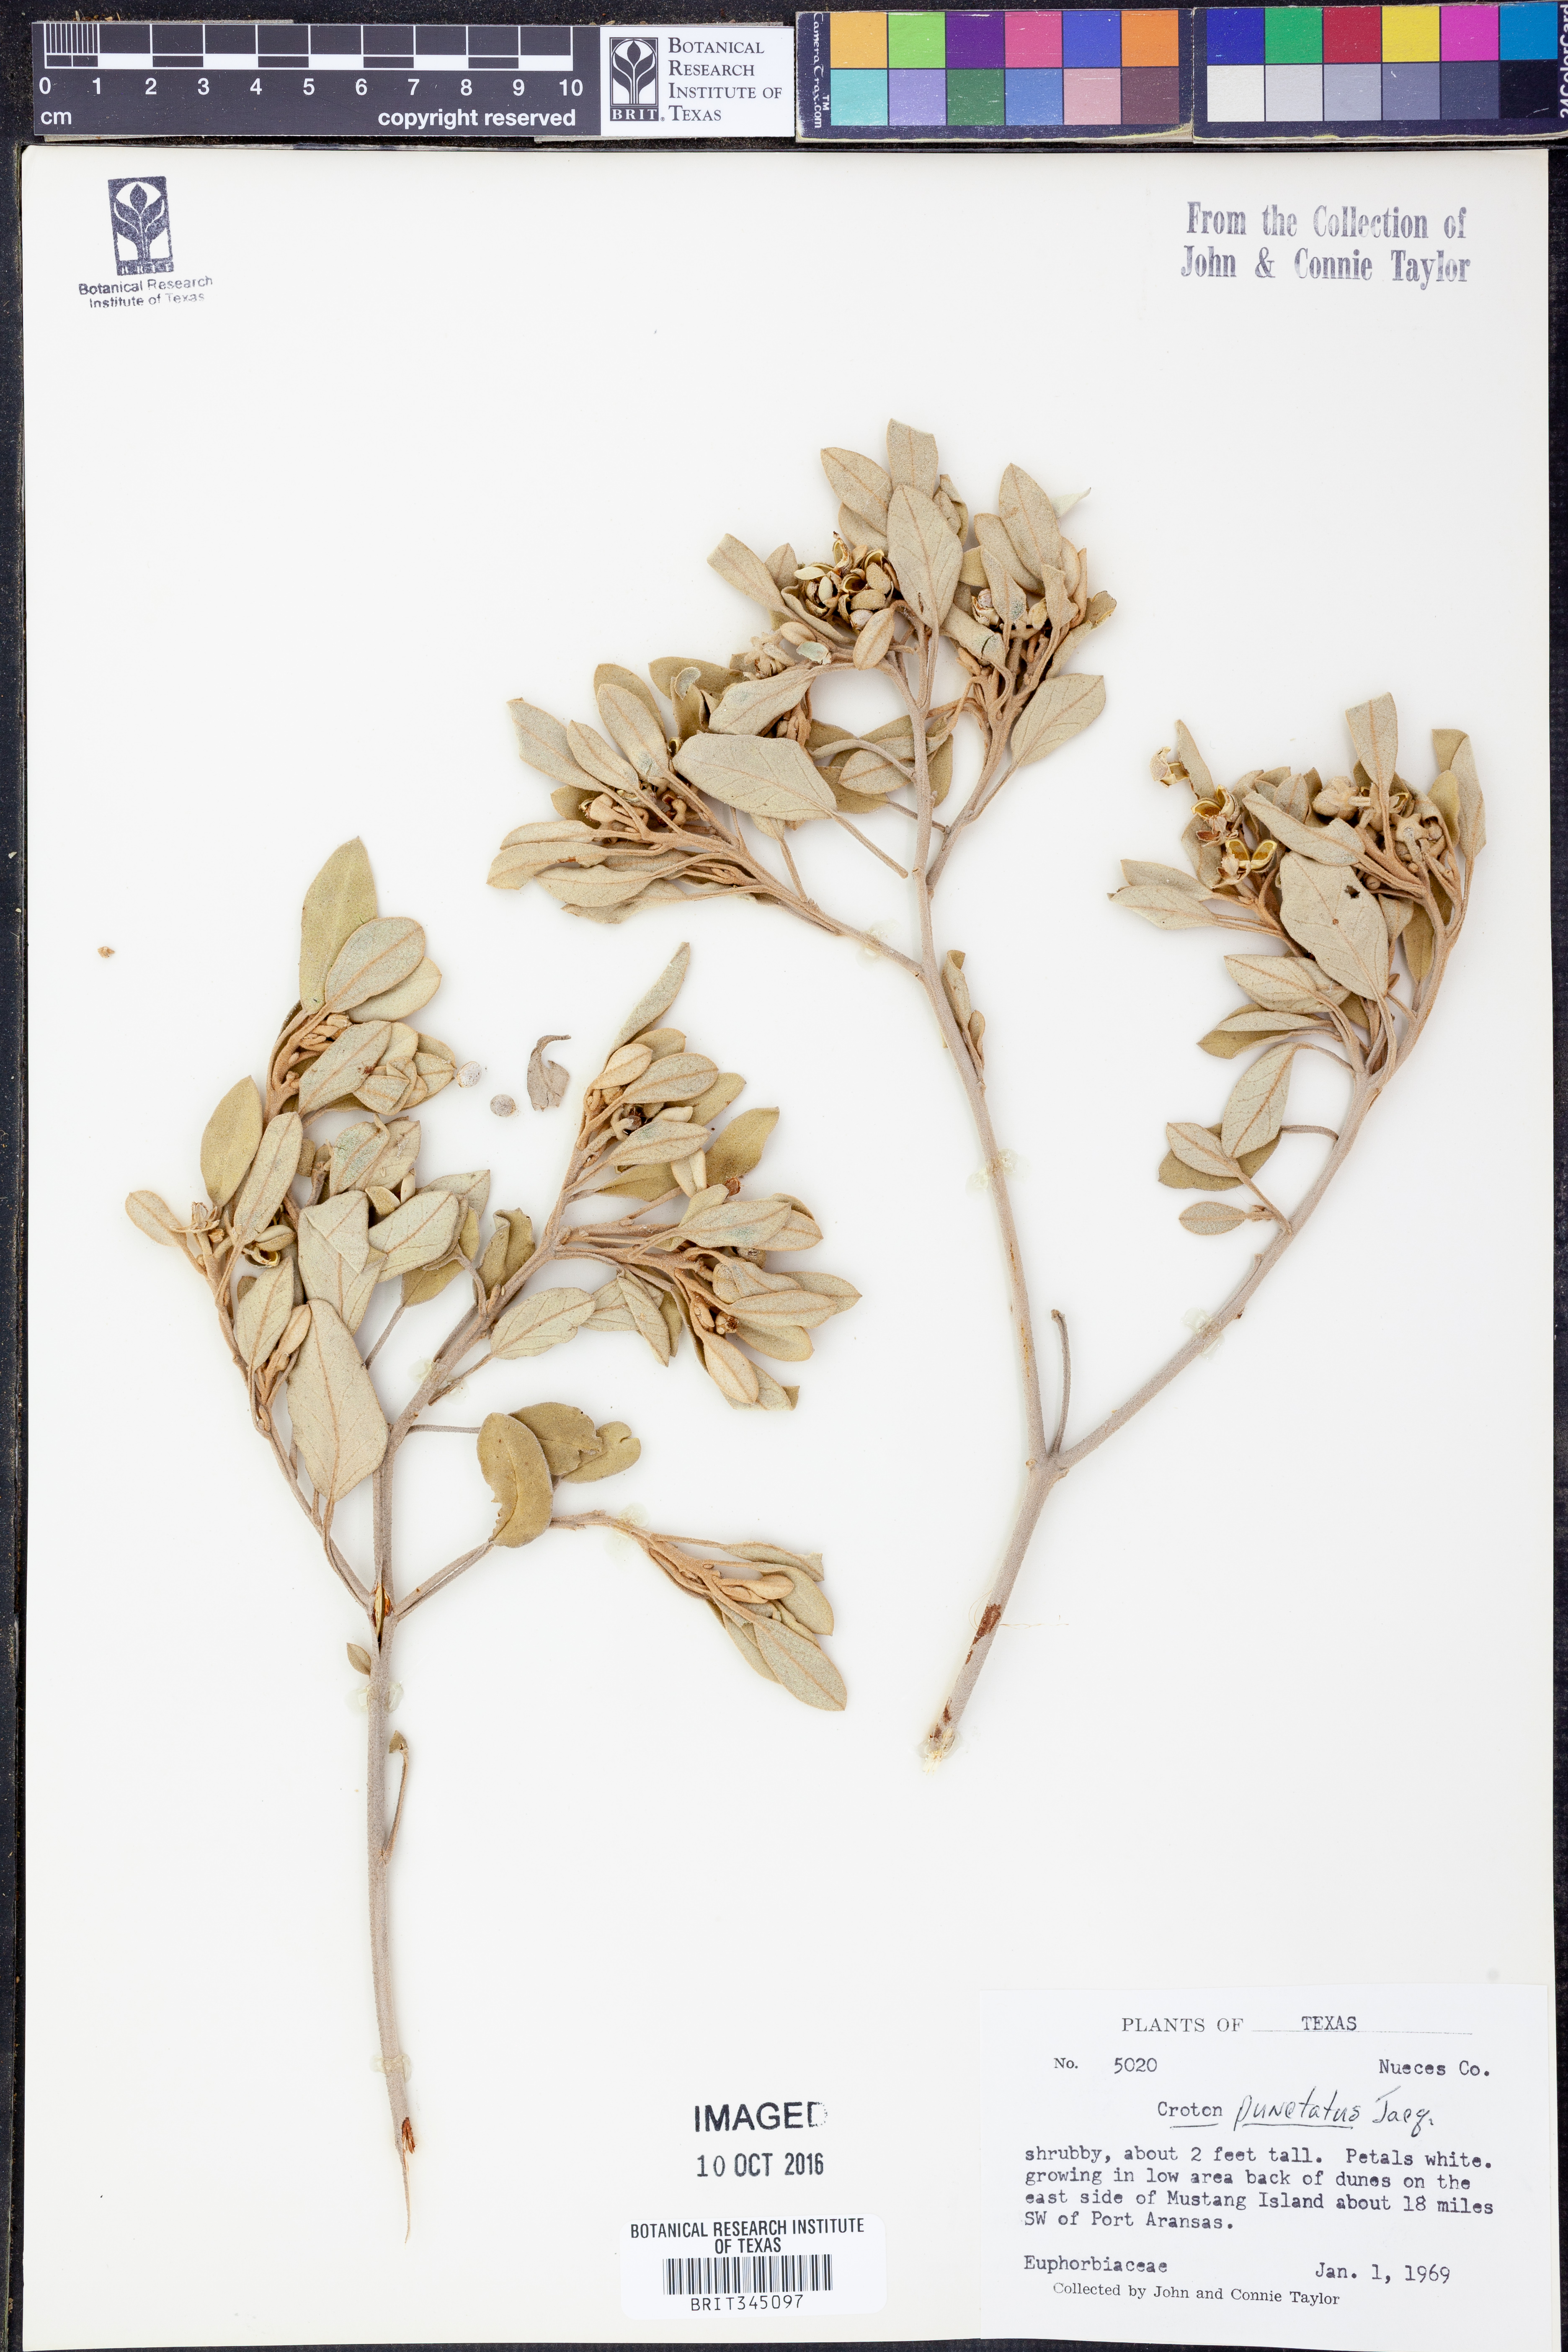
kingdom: Plantae
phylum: Tracheophyta
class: Magnoliopsida
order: Malpighiales
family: Euphorbiaceae
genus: Croton
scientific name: Croton punctatus
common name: Beach-tea
